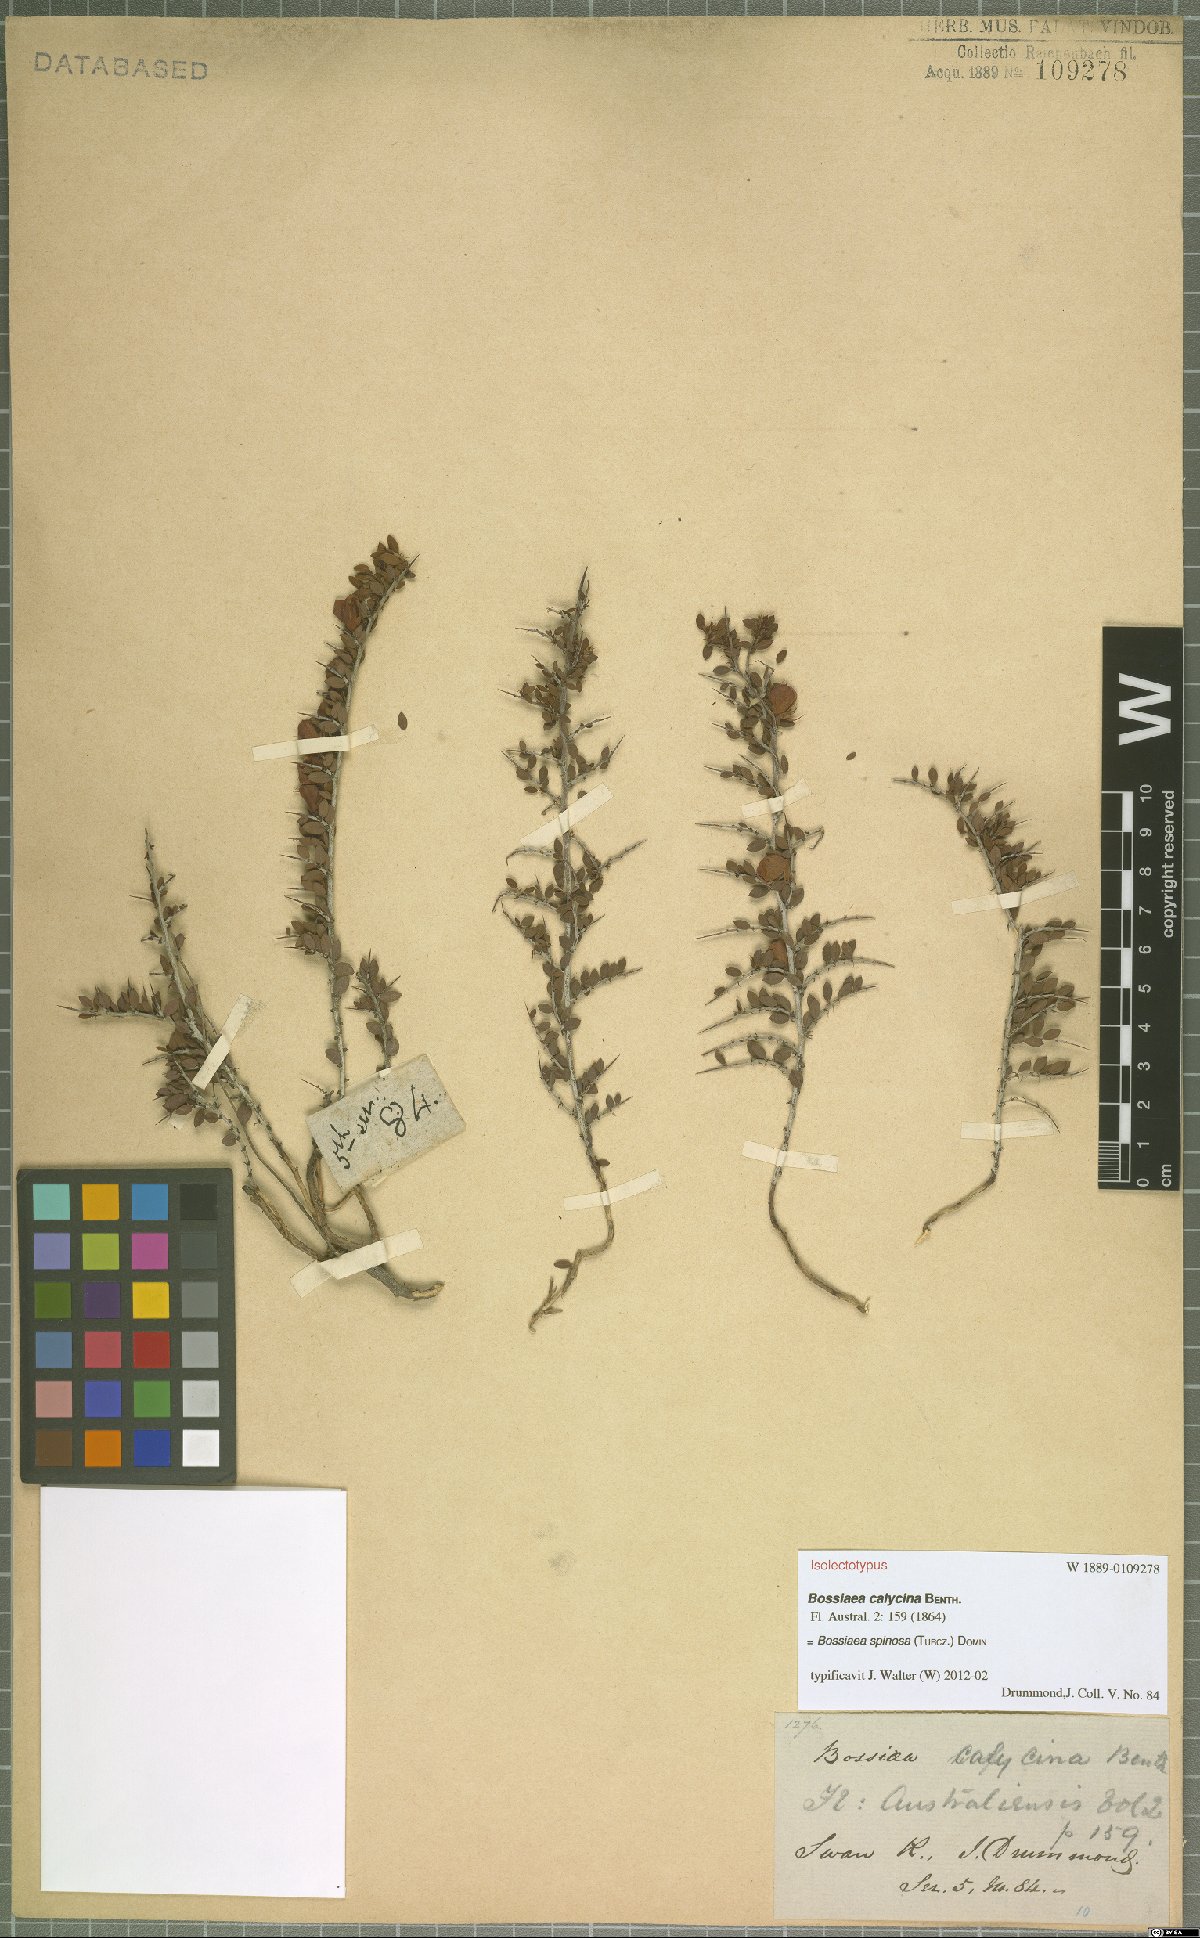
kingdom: Plantae
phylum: Tracheophyta
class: Magnoliopsida
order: Fabales
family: Fabaceae
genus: Bossiaea
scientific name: Bossiaea spinosa
